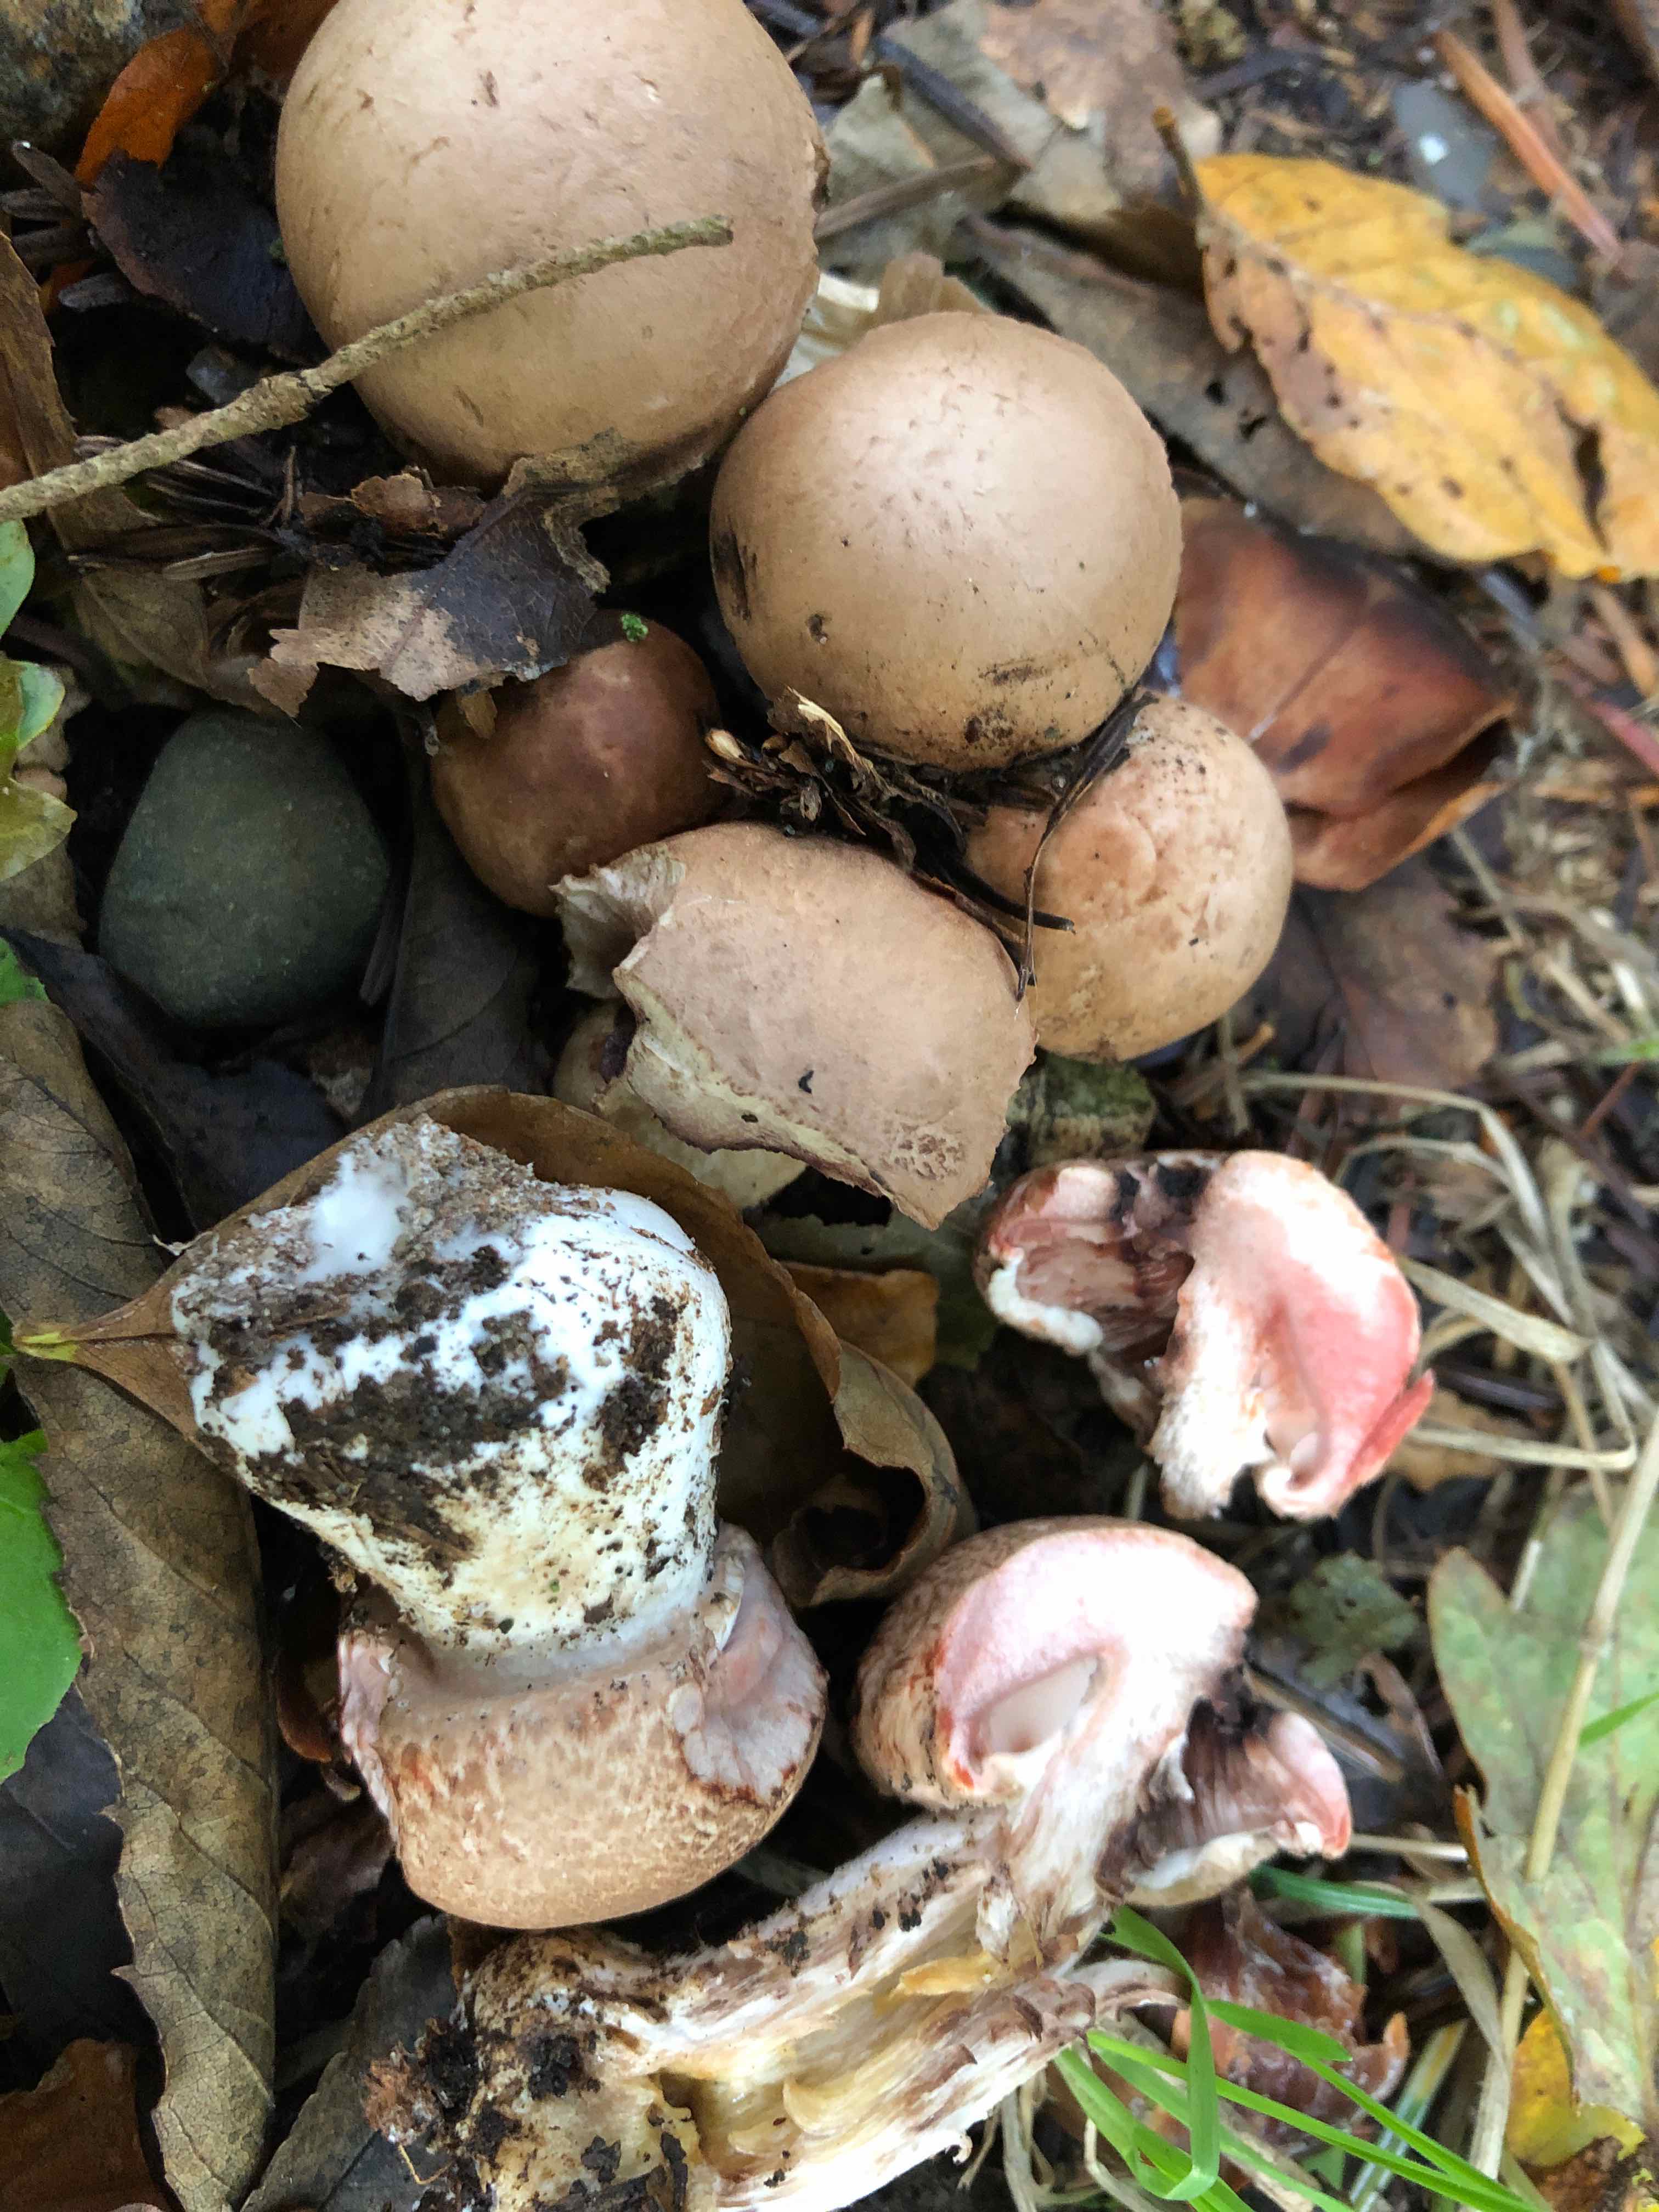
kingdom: Fungi
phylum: Basidiomycota
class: Agaricomycetes
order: Agaricales
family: Agaricaceae
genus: Agaricus
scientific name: Agaricus langei
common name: stor blod-champignon
